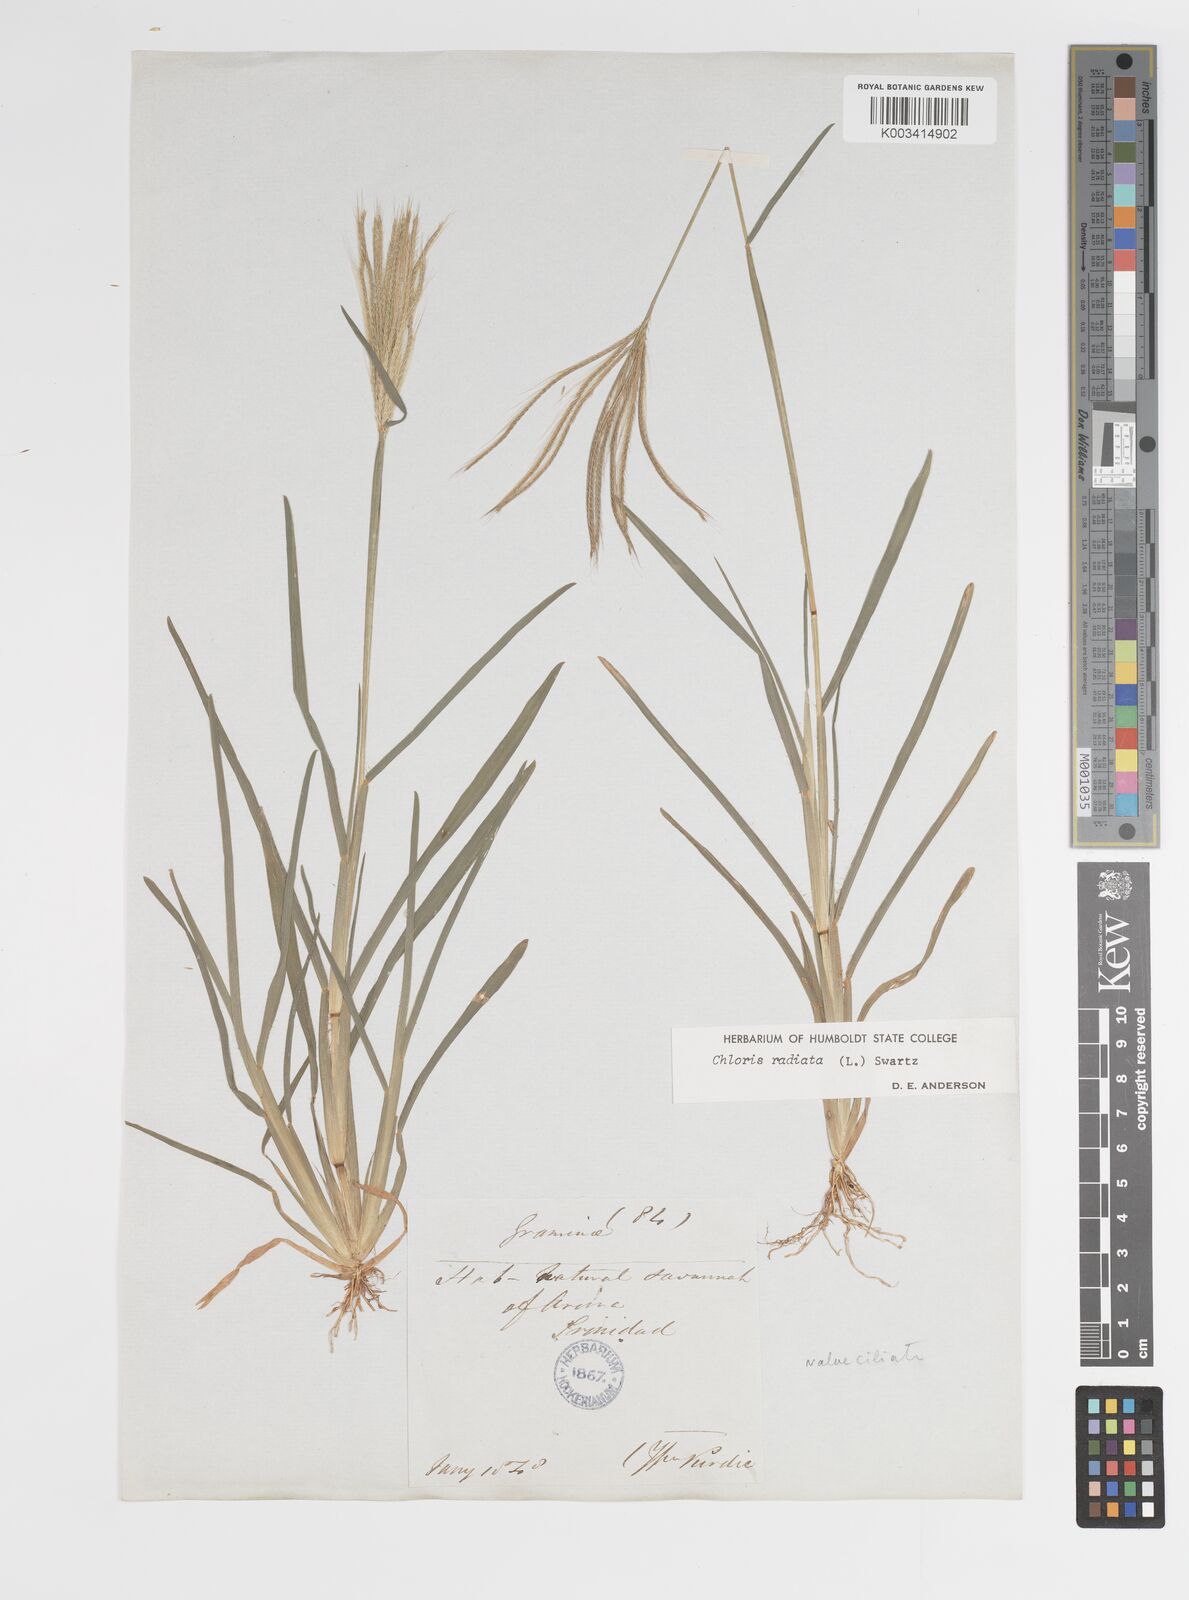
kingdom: Plantae
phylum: Tracheophyta
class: Liliopsida
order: Poales
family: Poaceae
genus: Chloris
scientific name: Chloris radiata
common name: Radiate fingergrass
